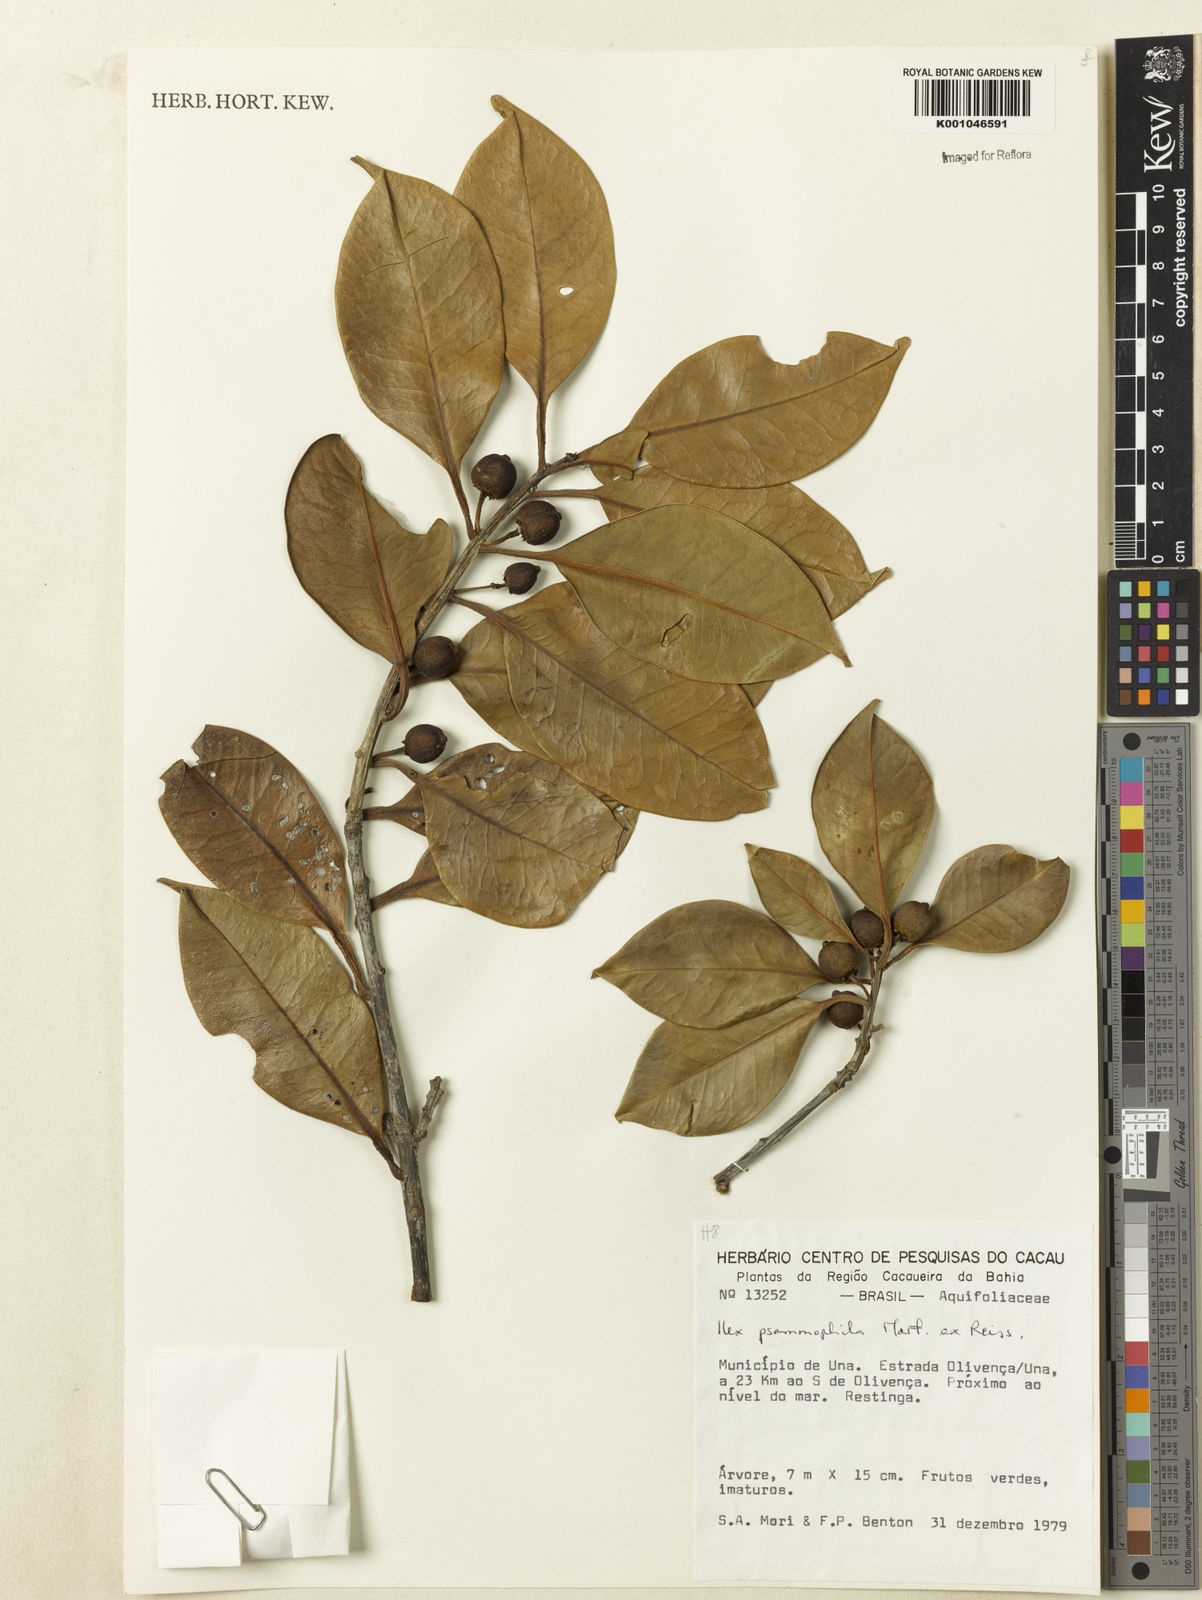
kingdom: Plantae
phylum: Tracheophyta
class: Magnoliopsida
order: Aquifoliales
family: Aquifoliaceae
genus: Ilex
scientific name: Ilex psammophila
